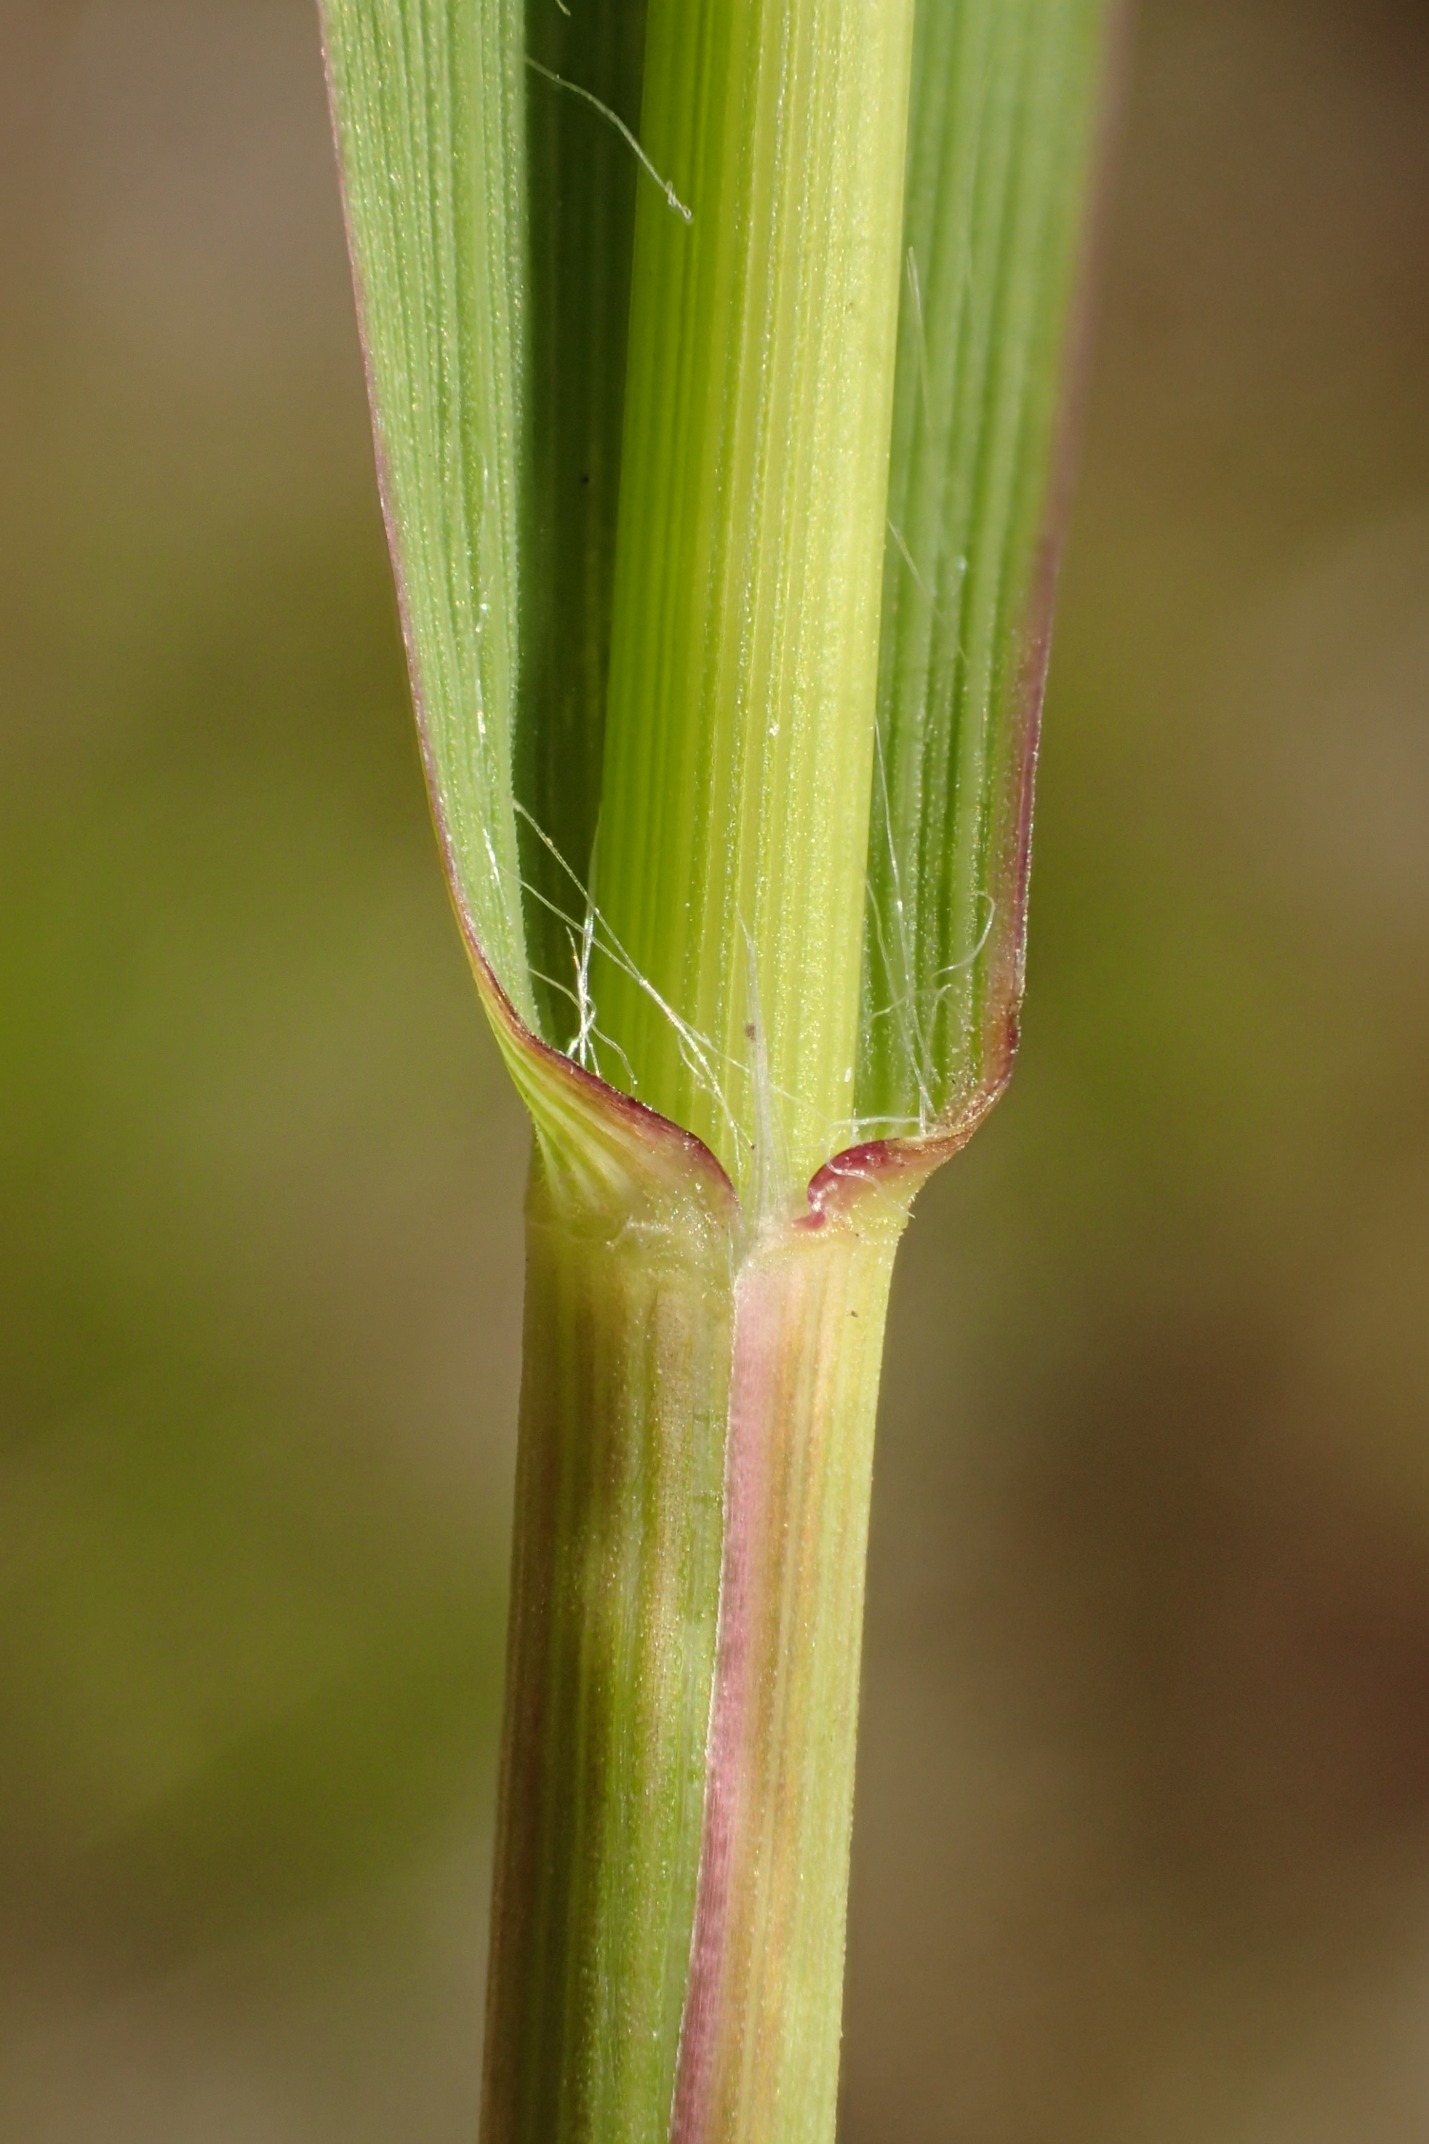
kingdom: Plantae
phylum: Tracheophyta
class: Liliopsida
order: Poales
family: Poaceae
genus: Molinia
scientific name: Molinia caerulea
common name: Blåtop
